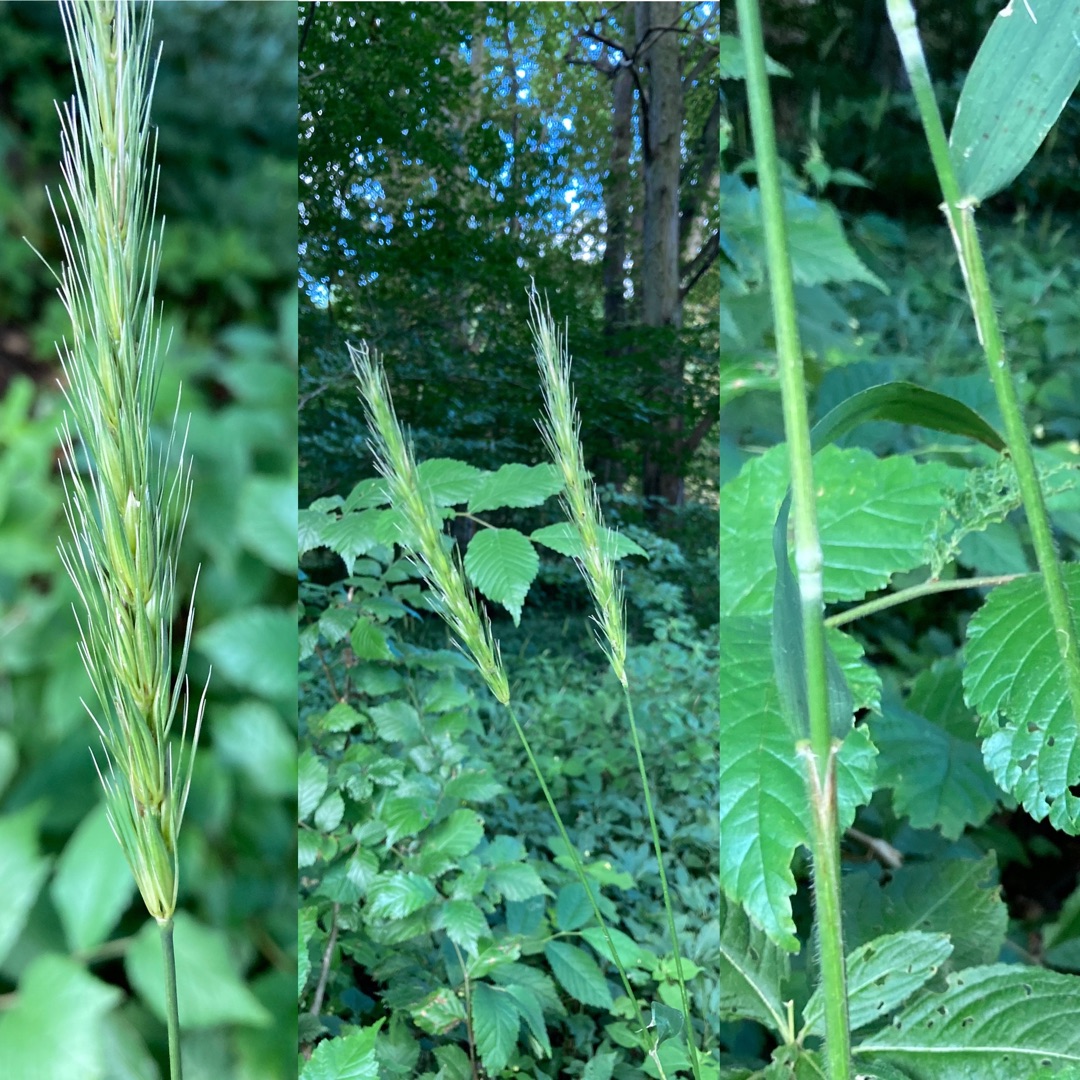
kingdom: Plantae
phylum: Tracheophyta
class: Liliopsida
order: Poales
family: Poaceae
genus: Hordelymus
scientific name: Hordelymus europaeus
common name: Skovbyg
